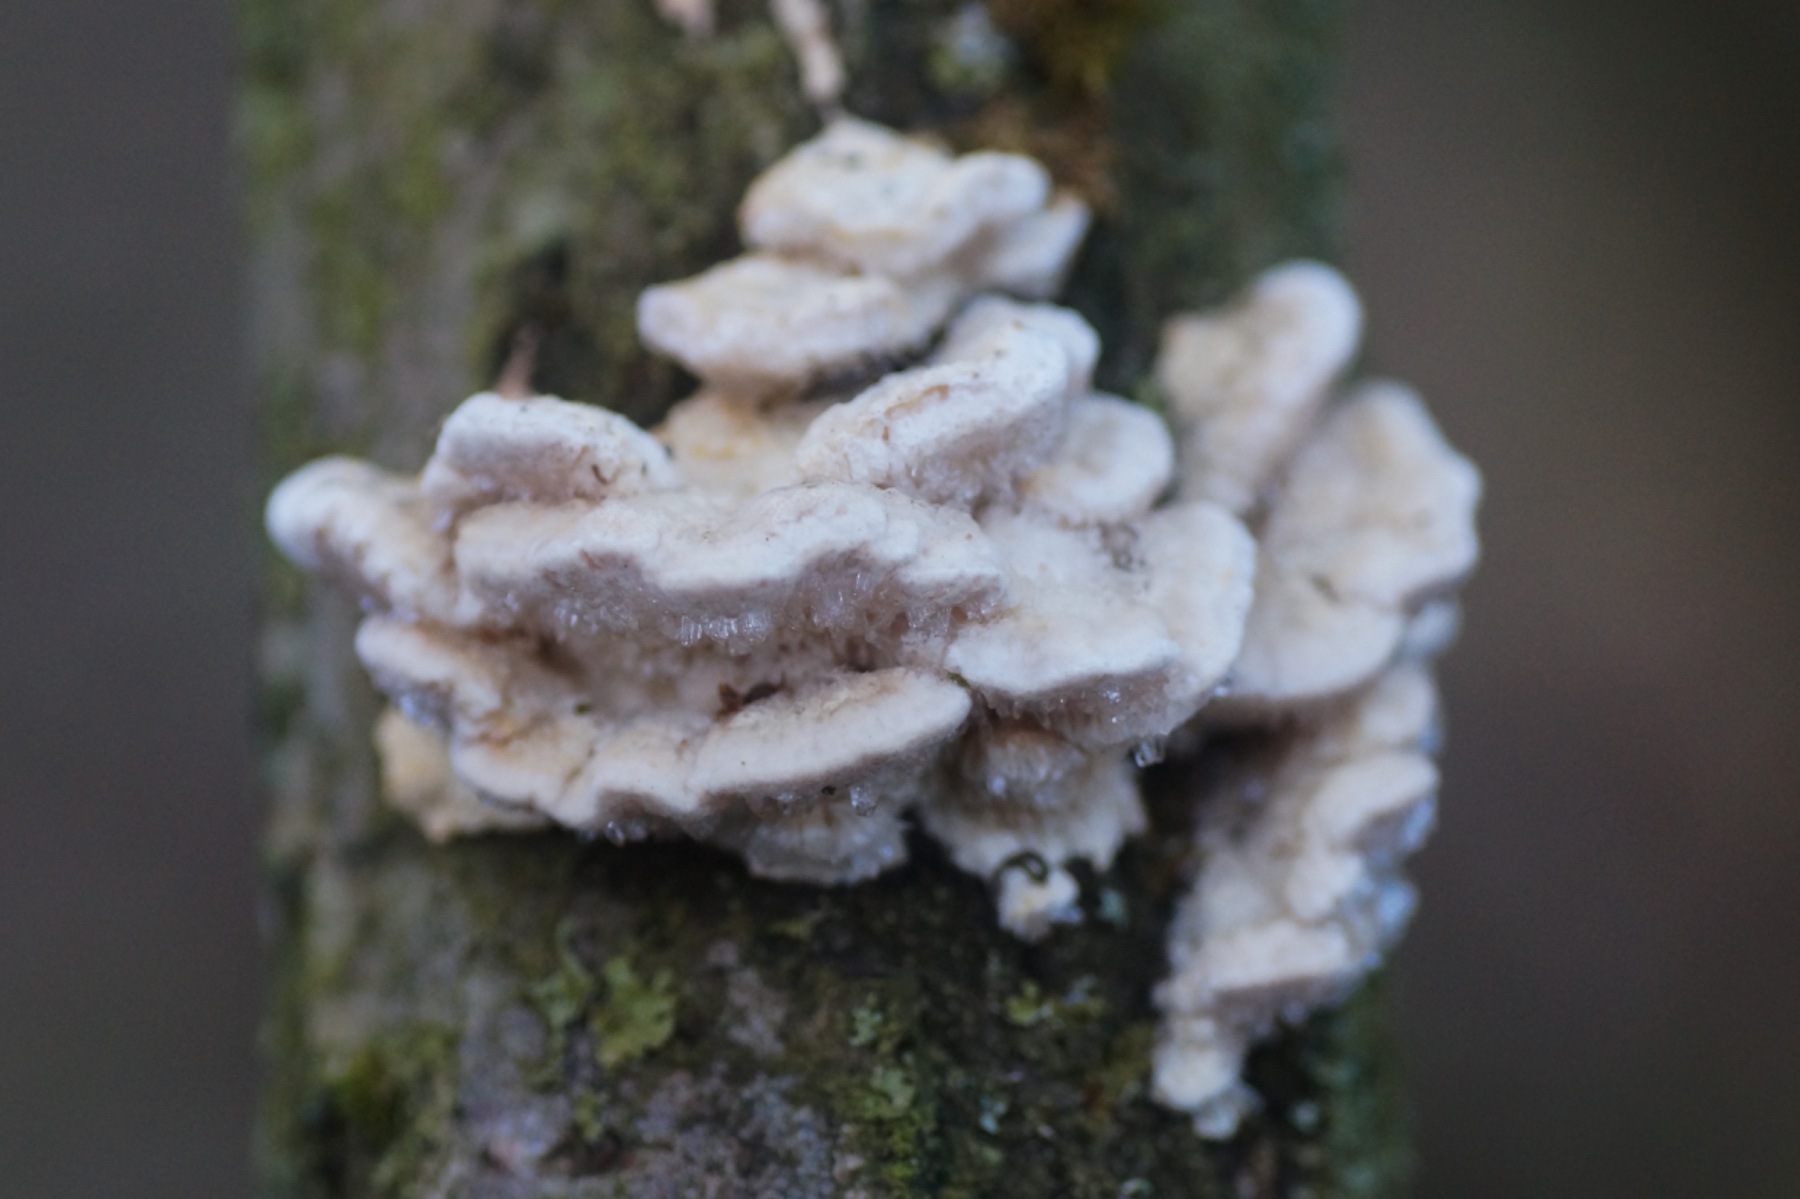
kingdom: Fungi
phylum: Basidiomycota
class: Agaricomycetes
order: Polyporales
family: Polyporaceae
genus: Trametes
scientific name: Trametes suaveolens
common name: vellugtende læderporesvamp
